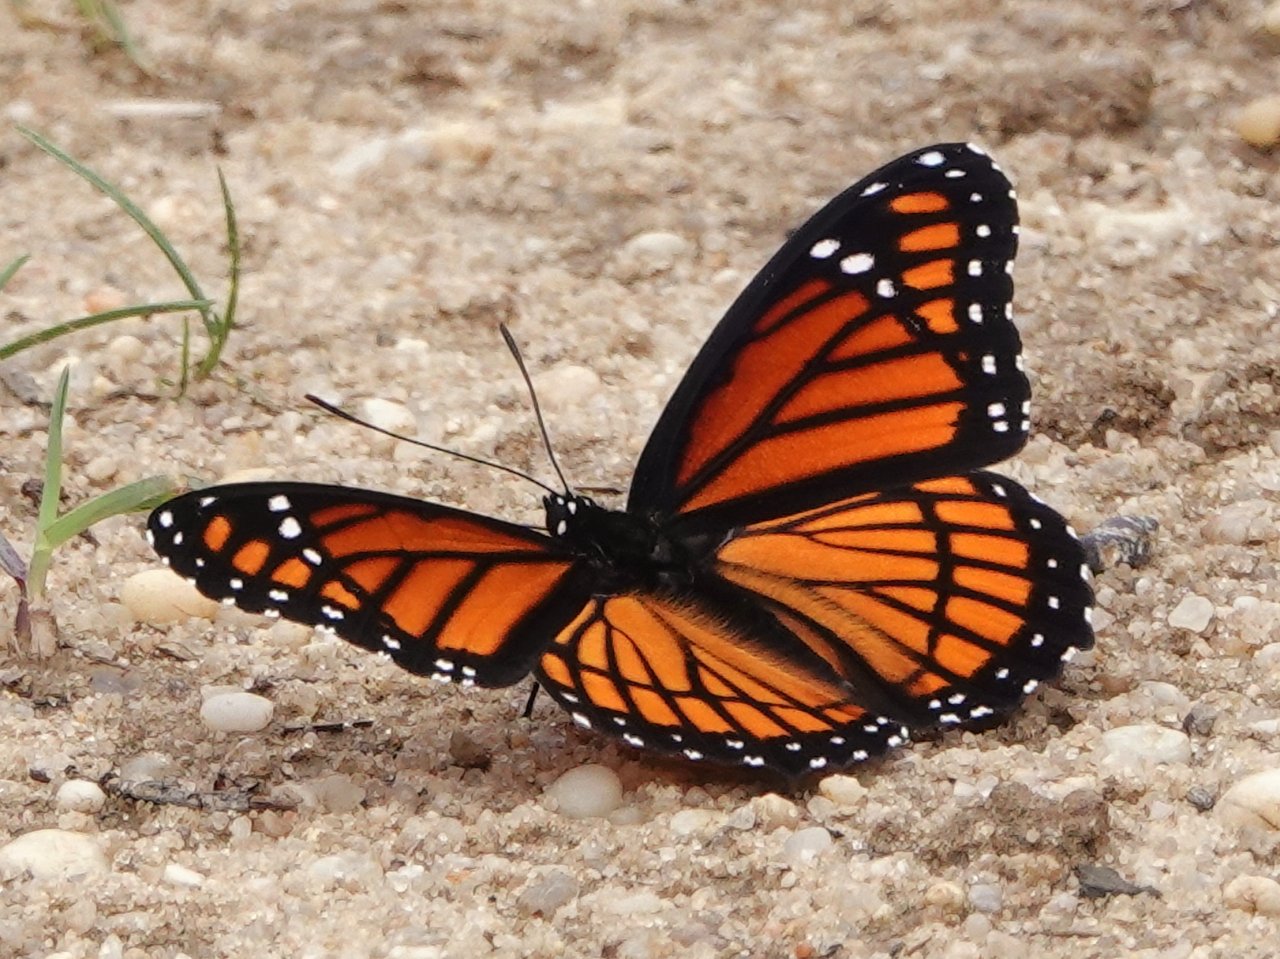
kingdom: Animalia
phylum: Arthropoda
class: Insecta
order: Lepidoptera
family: Nymphalidae
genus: Limenitis
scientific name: Limenitis archippus
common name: Viceroy
